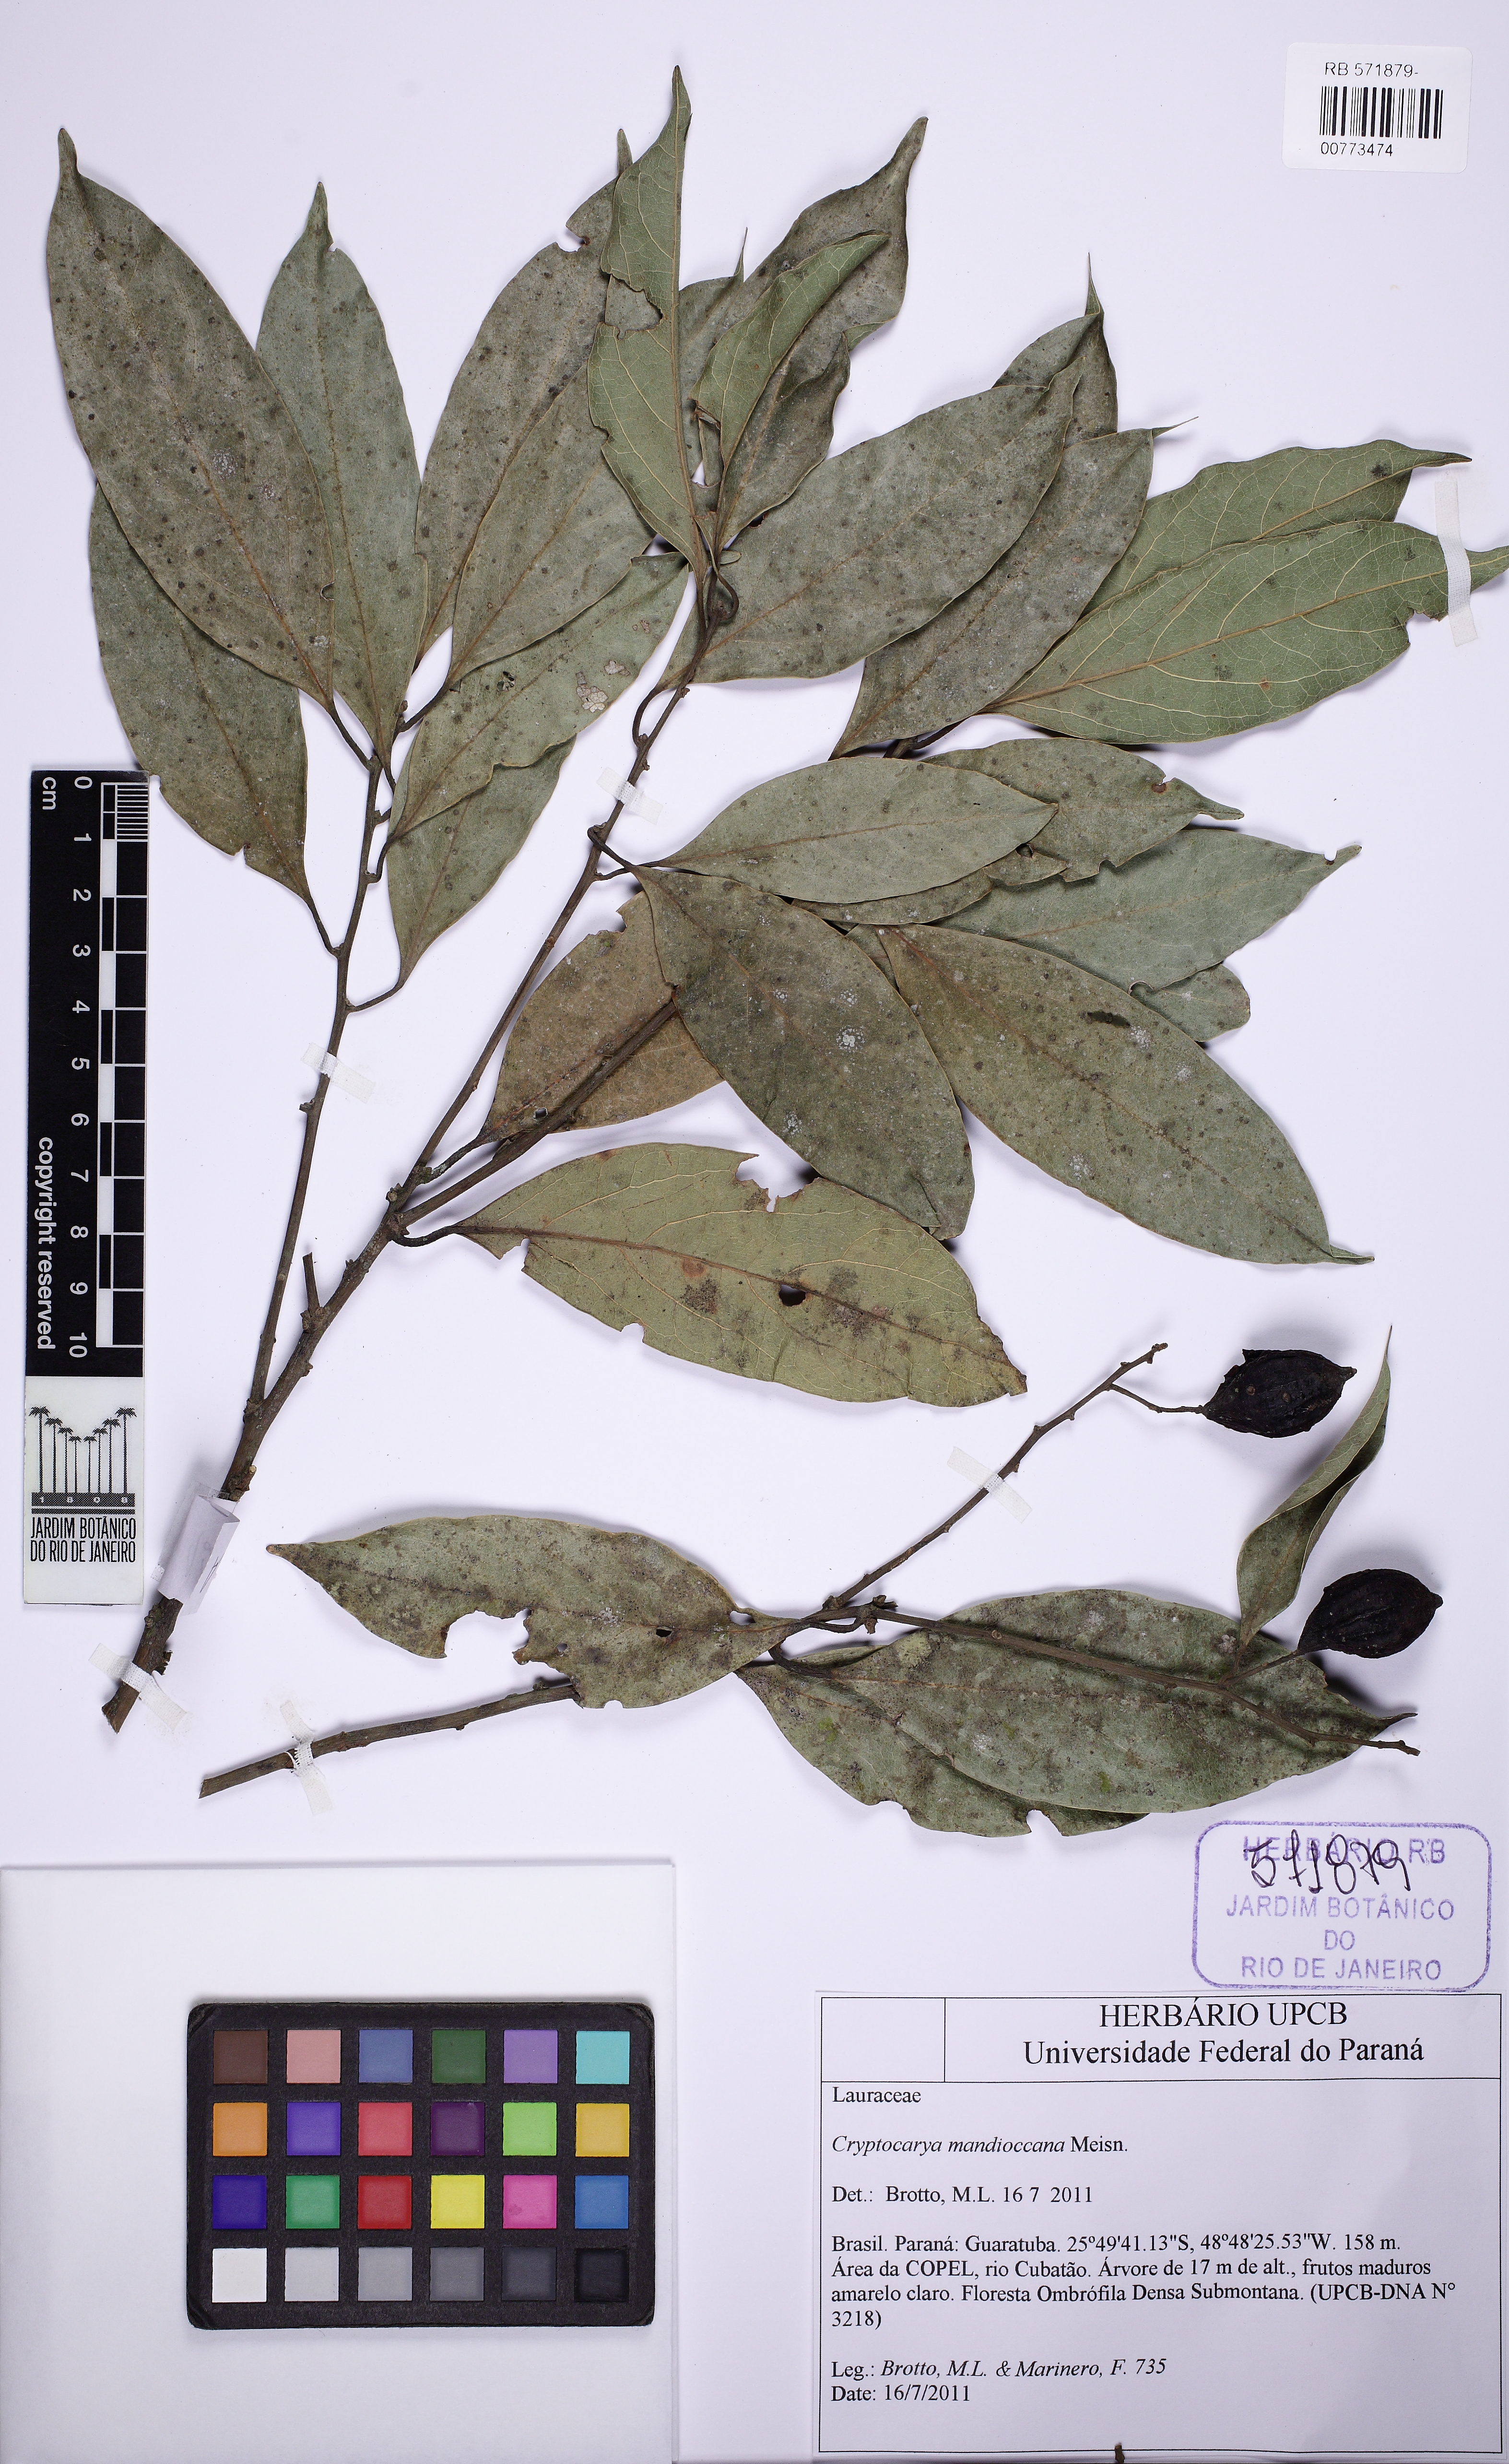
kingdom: Plantae
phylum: Tracheophyta
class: Magnoliopsida
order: Laurales
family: Lauraceae
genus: Cryptocarya
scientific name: Cryptocarya mandioccana
